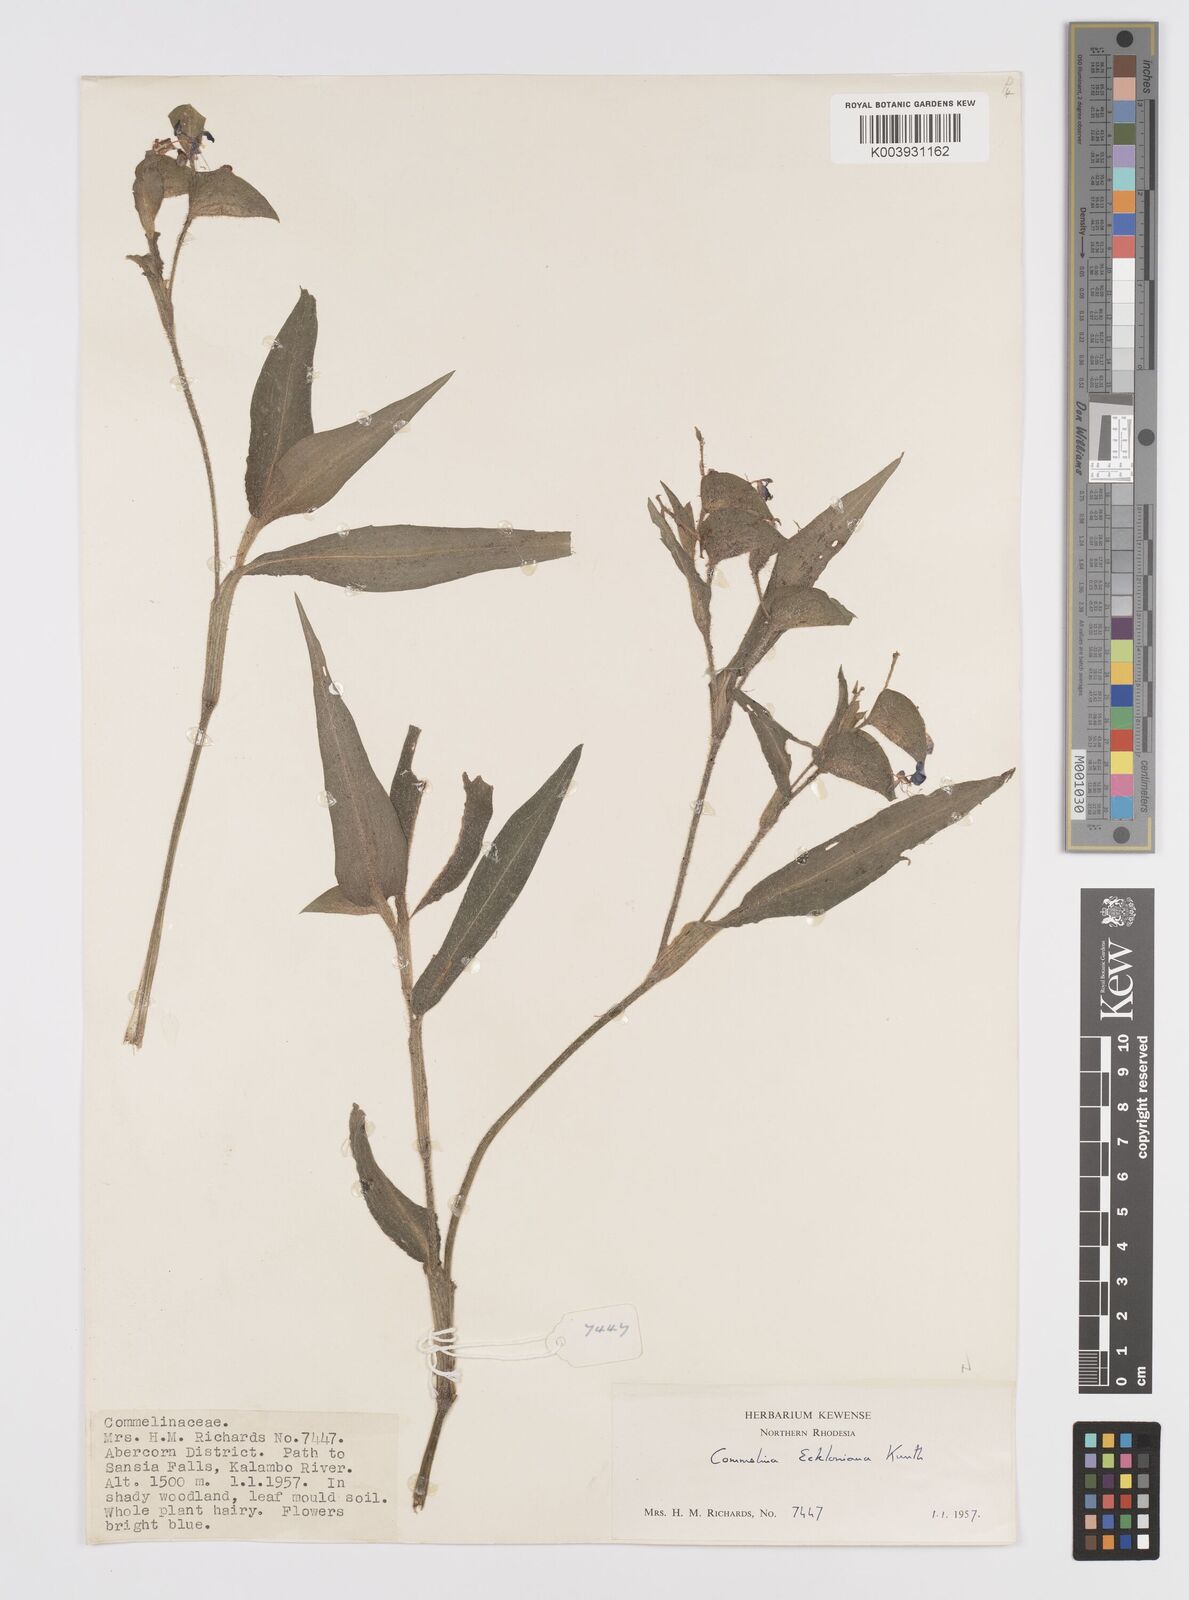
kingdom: Plantae
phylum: Tracheophyta
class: Liliopsida
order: Commelinales
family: Commelinaceae
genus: Commelina
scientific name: Commelina eckloniana
